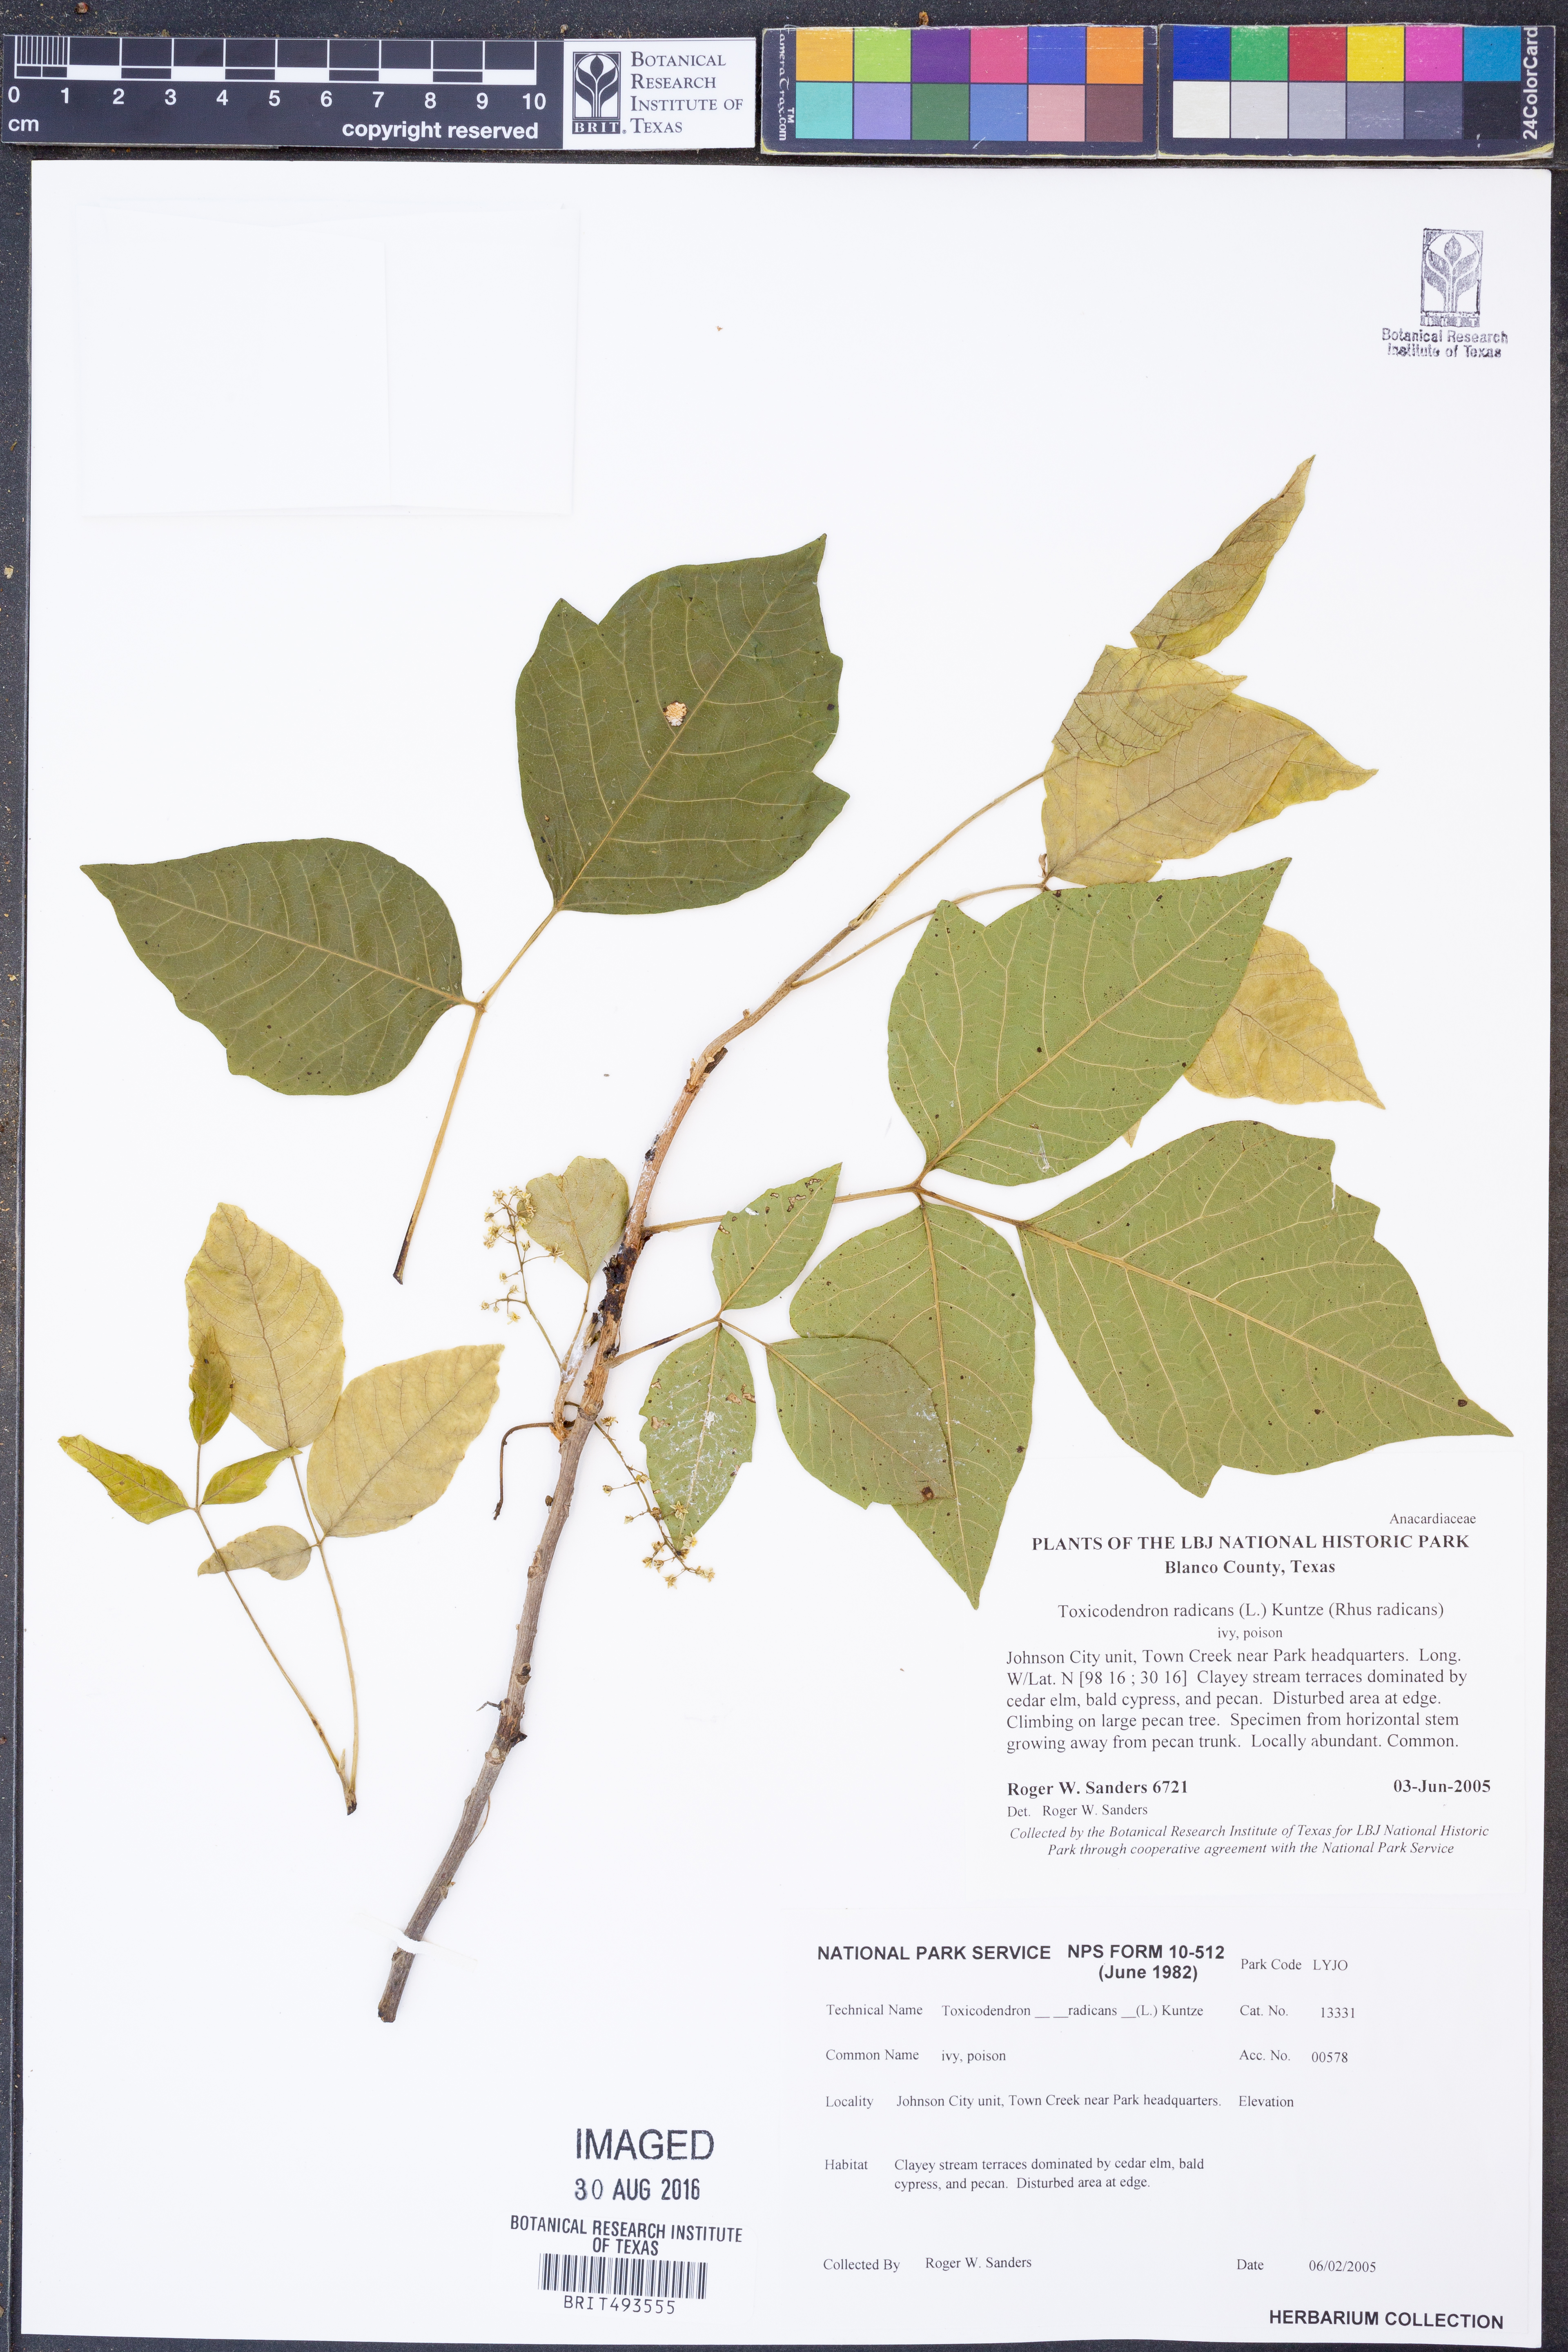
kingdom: Plantae
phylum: Tracheophyta
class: Magnoliopsida
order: Sapindales
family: Anacardiaceae
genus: Toxicodendron
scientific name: Toxicodendron radicans
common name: Poison ivy
